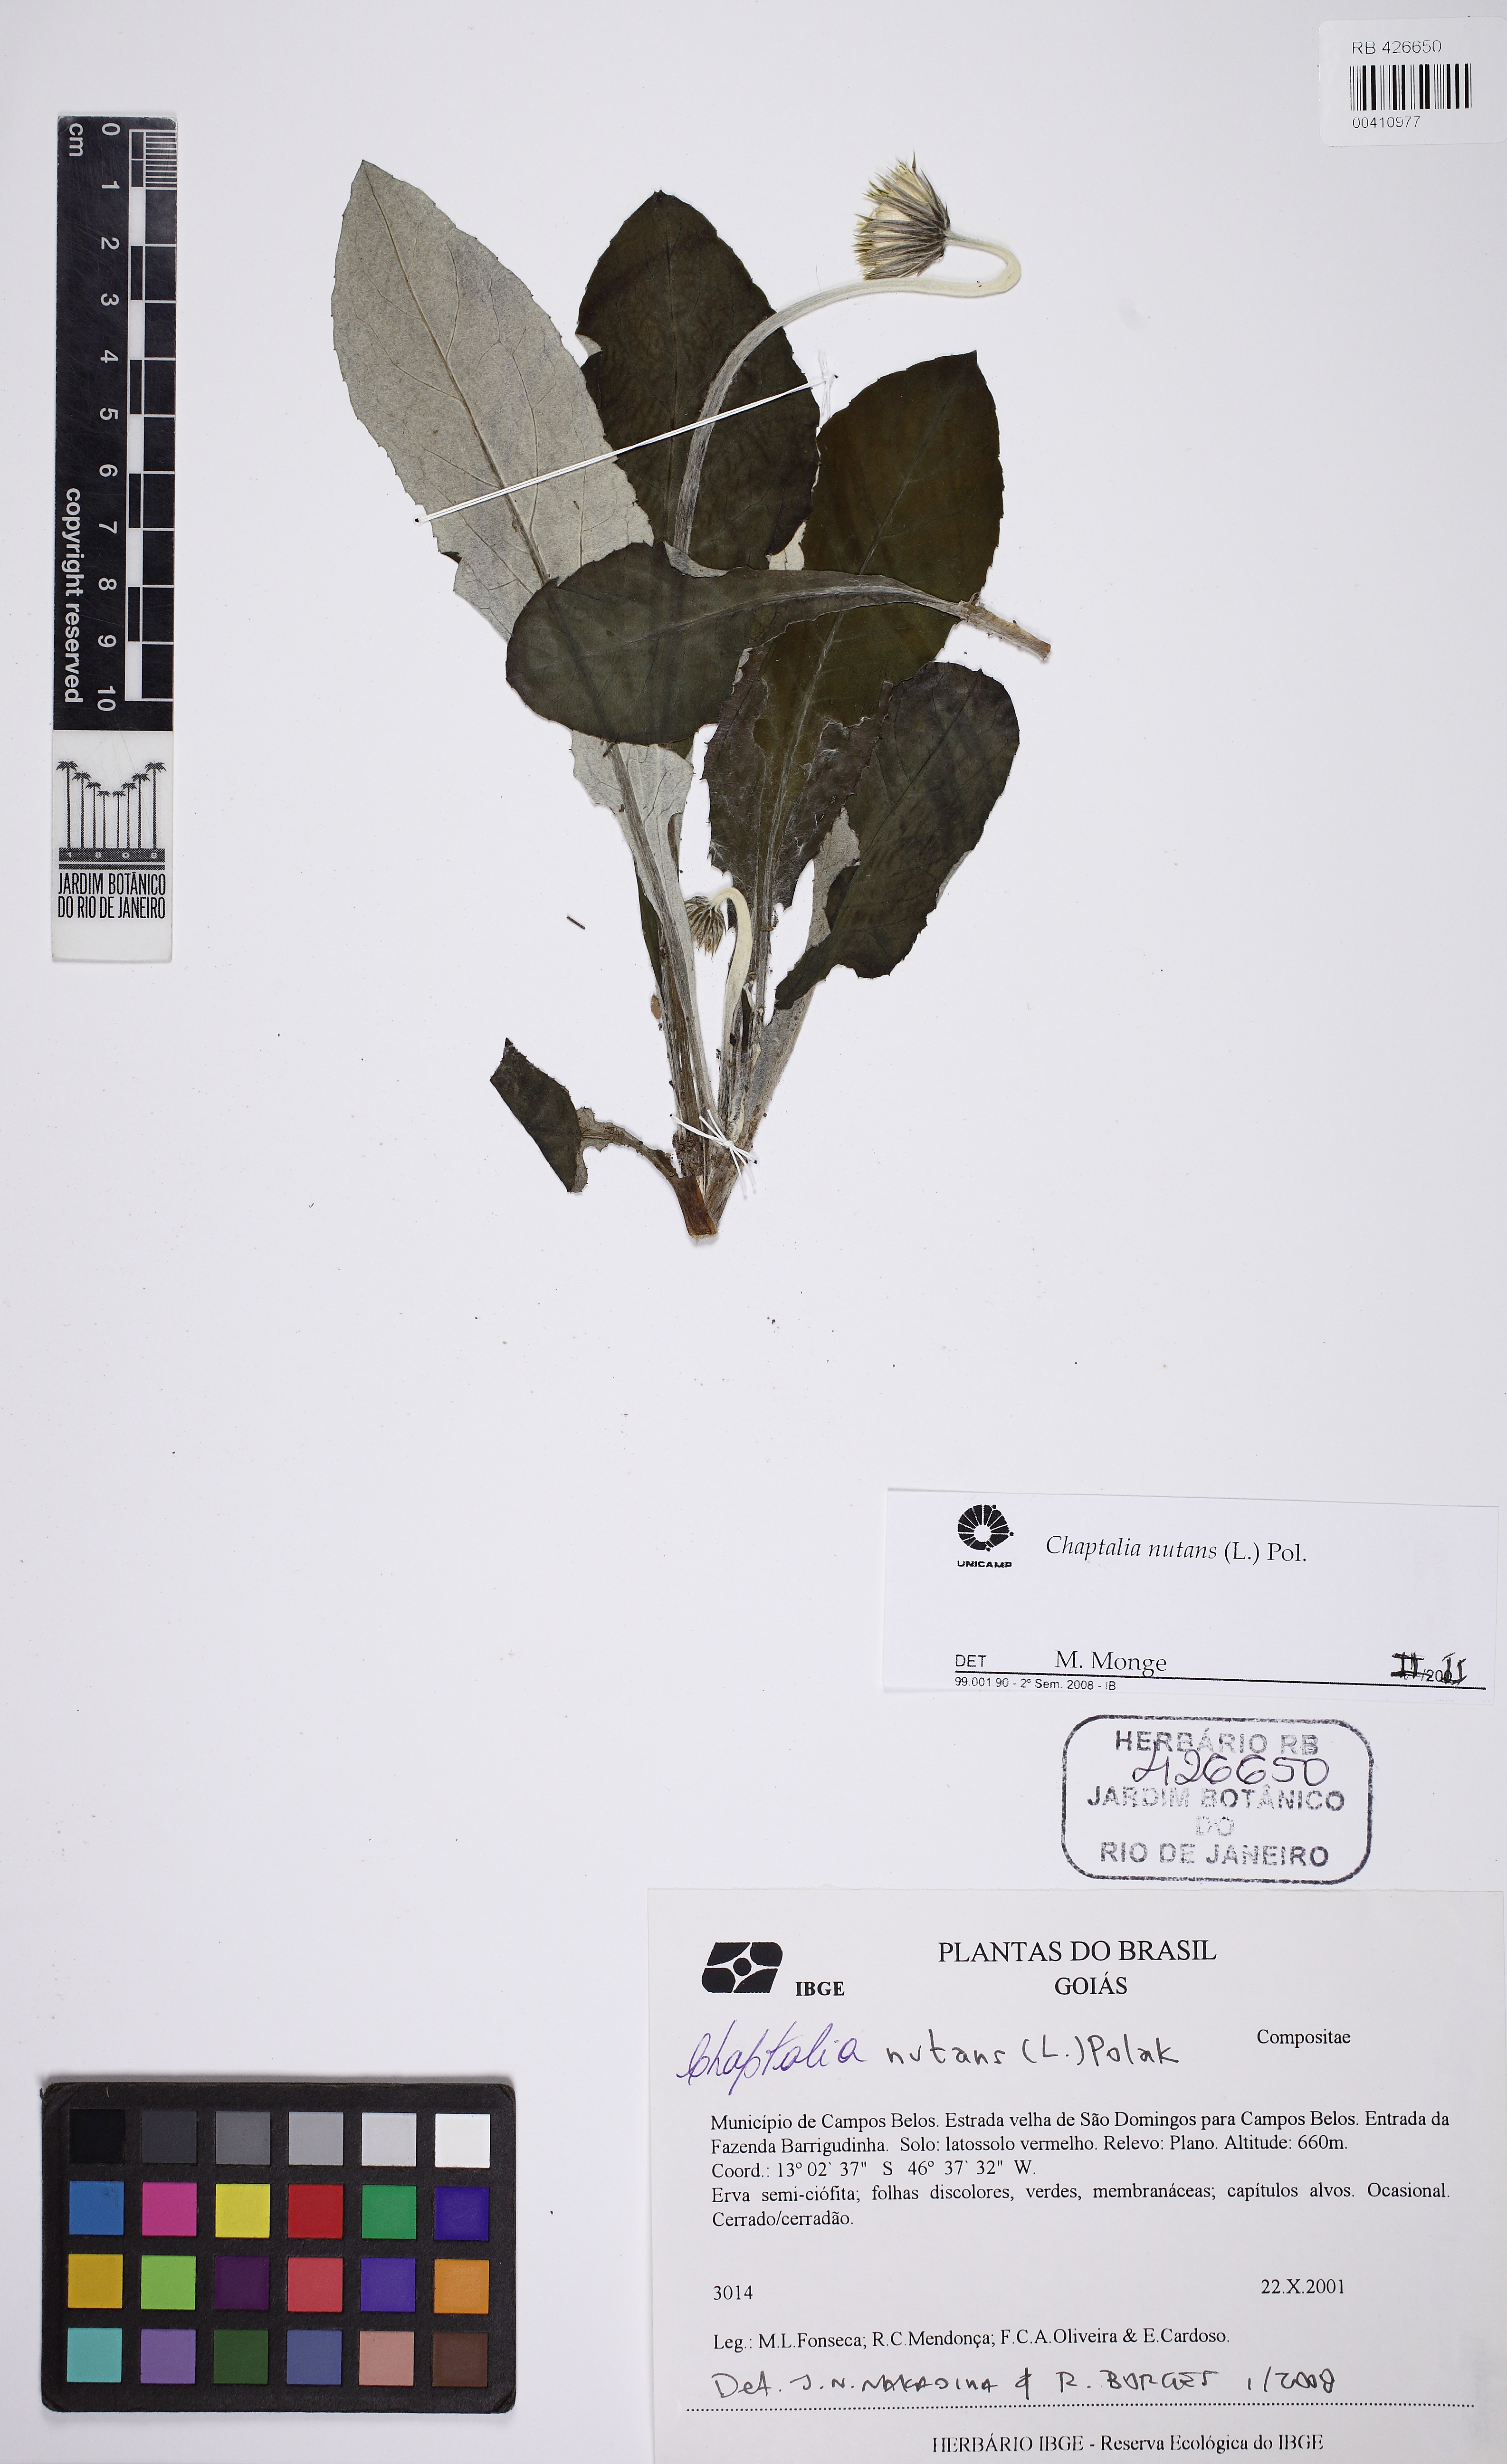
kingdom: Plantae
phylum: Tracheophyta
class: Magnoliopsida
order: Asterales
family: Asteraceae
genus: Chaptalia
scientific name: Chaptalia nutans
